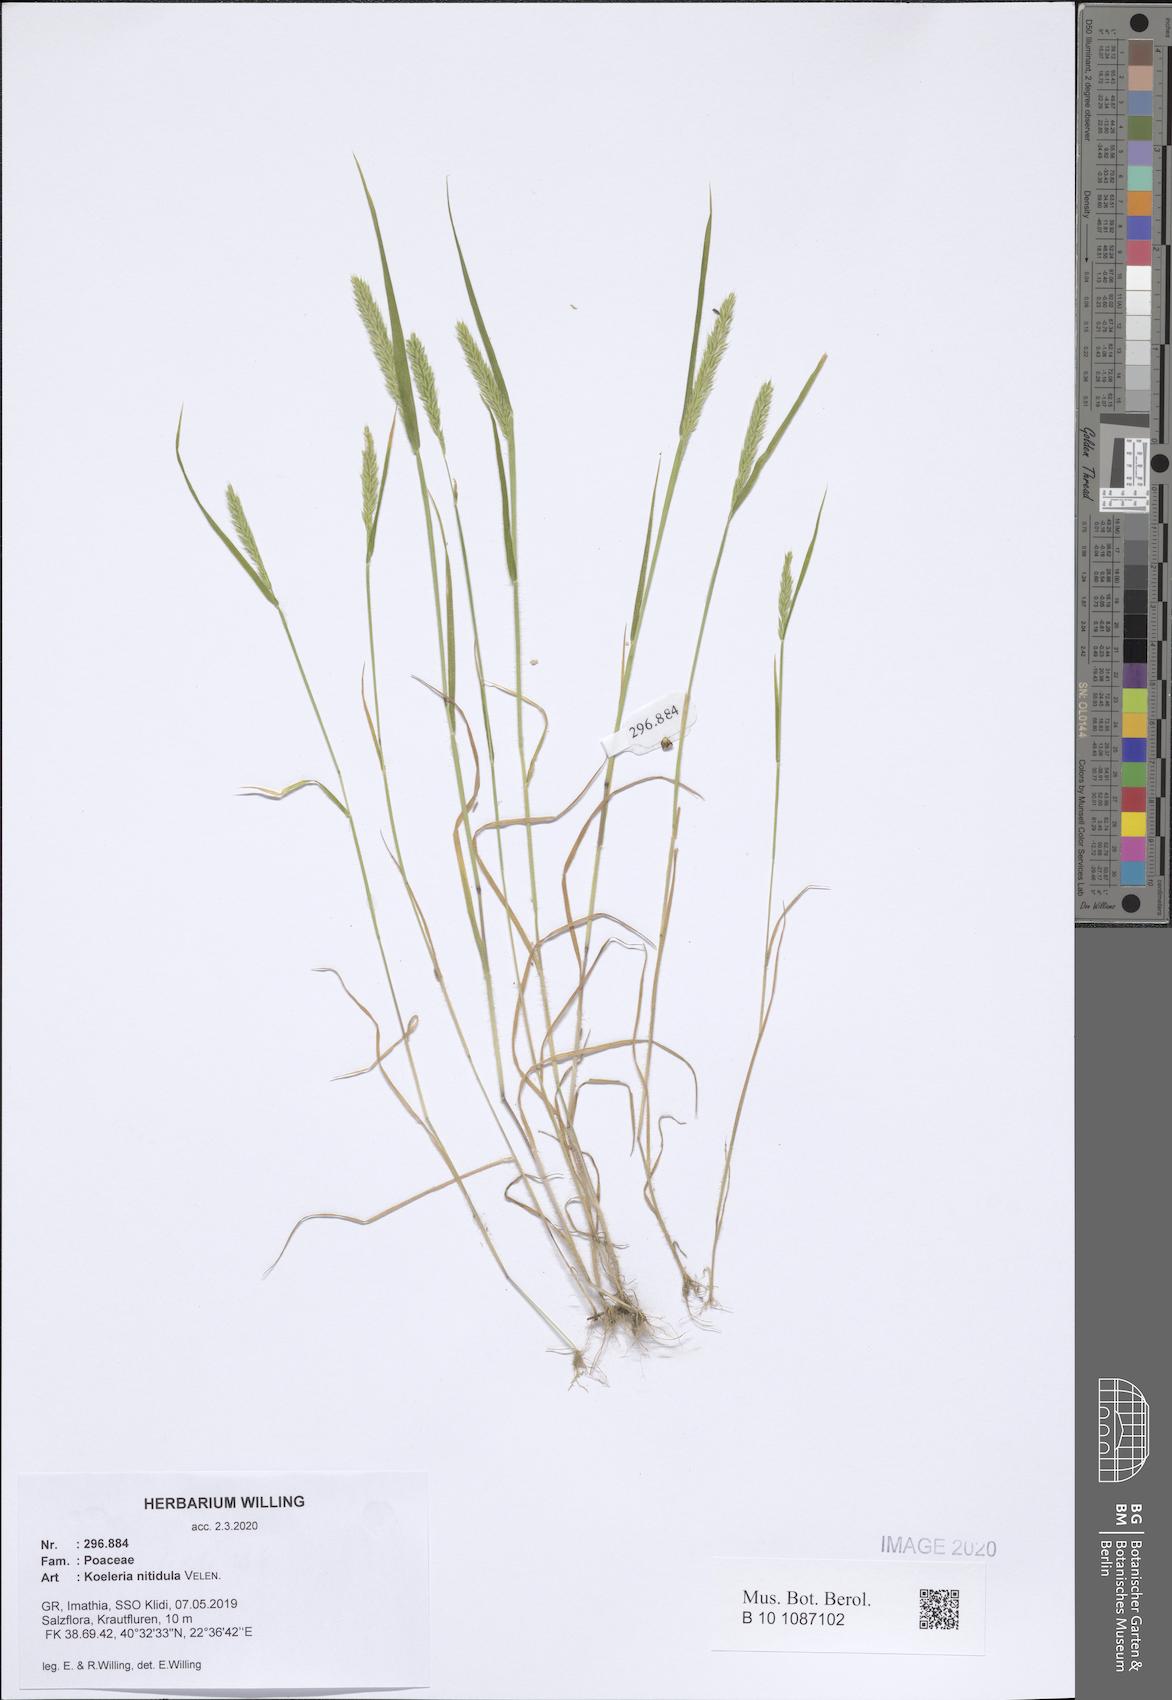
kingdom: Plantae
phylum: Tracheophyta
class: Liliopsida
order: Poales
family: Poaceae
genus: Koeleria
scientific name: Koeleria nitidula
